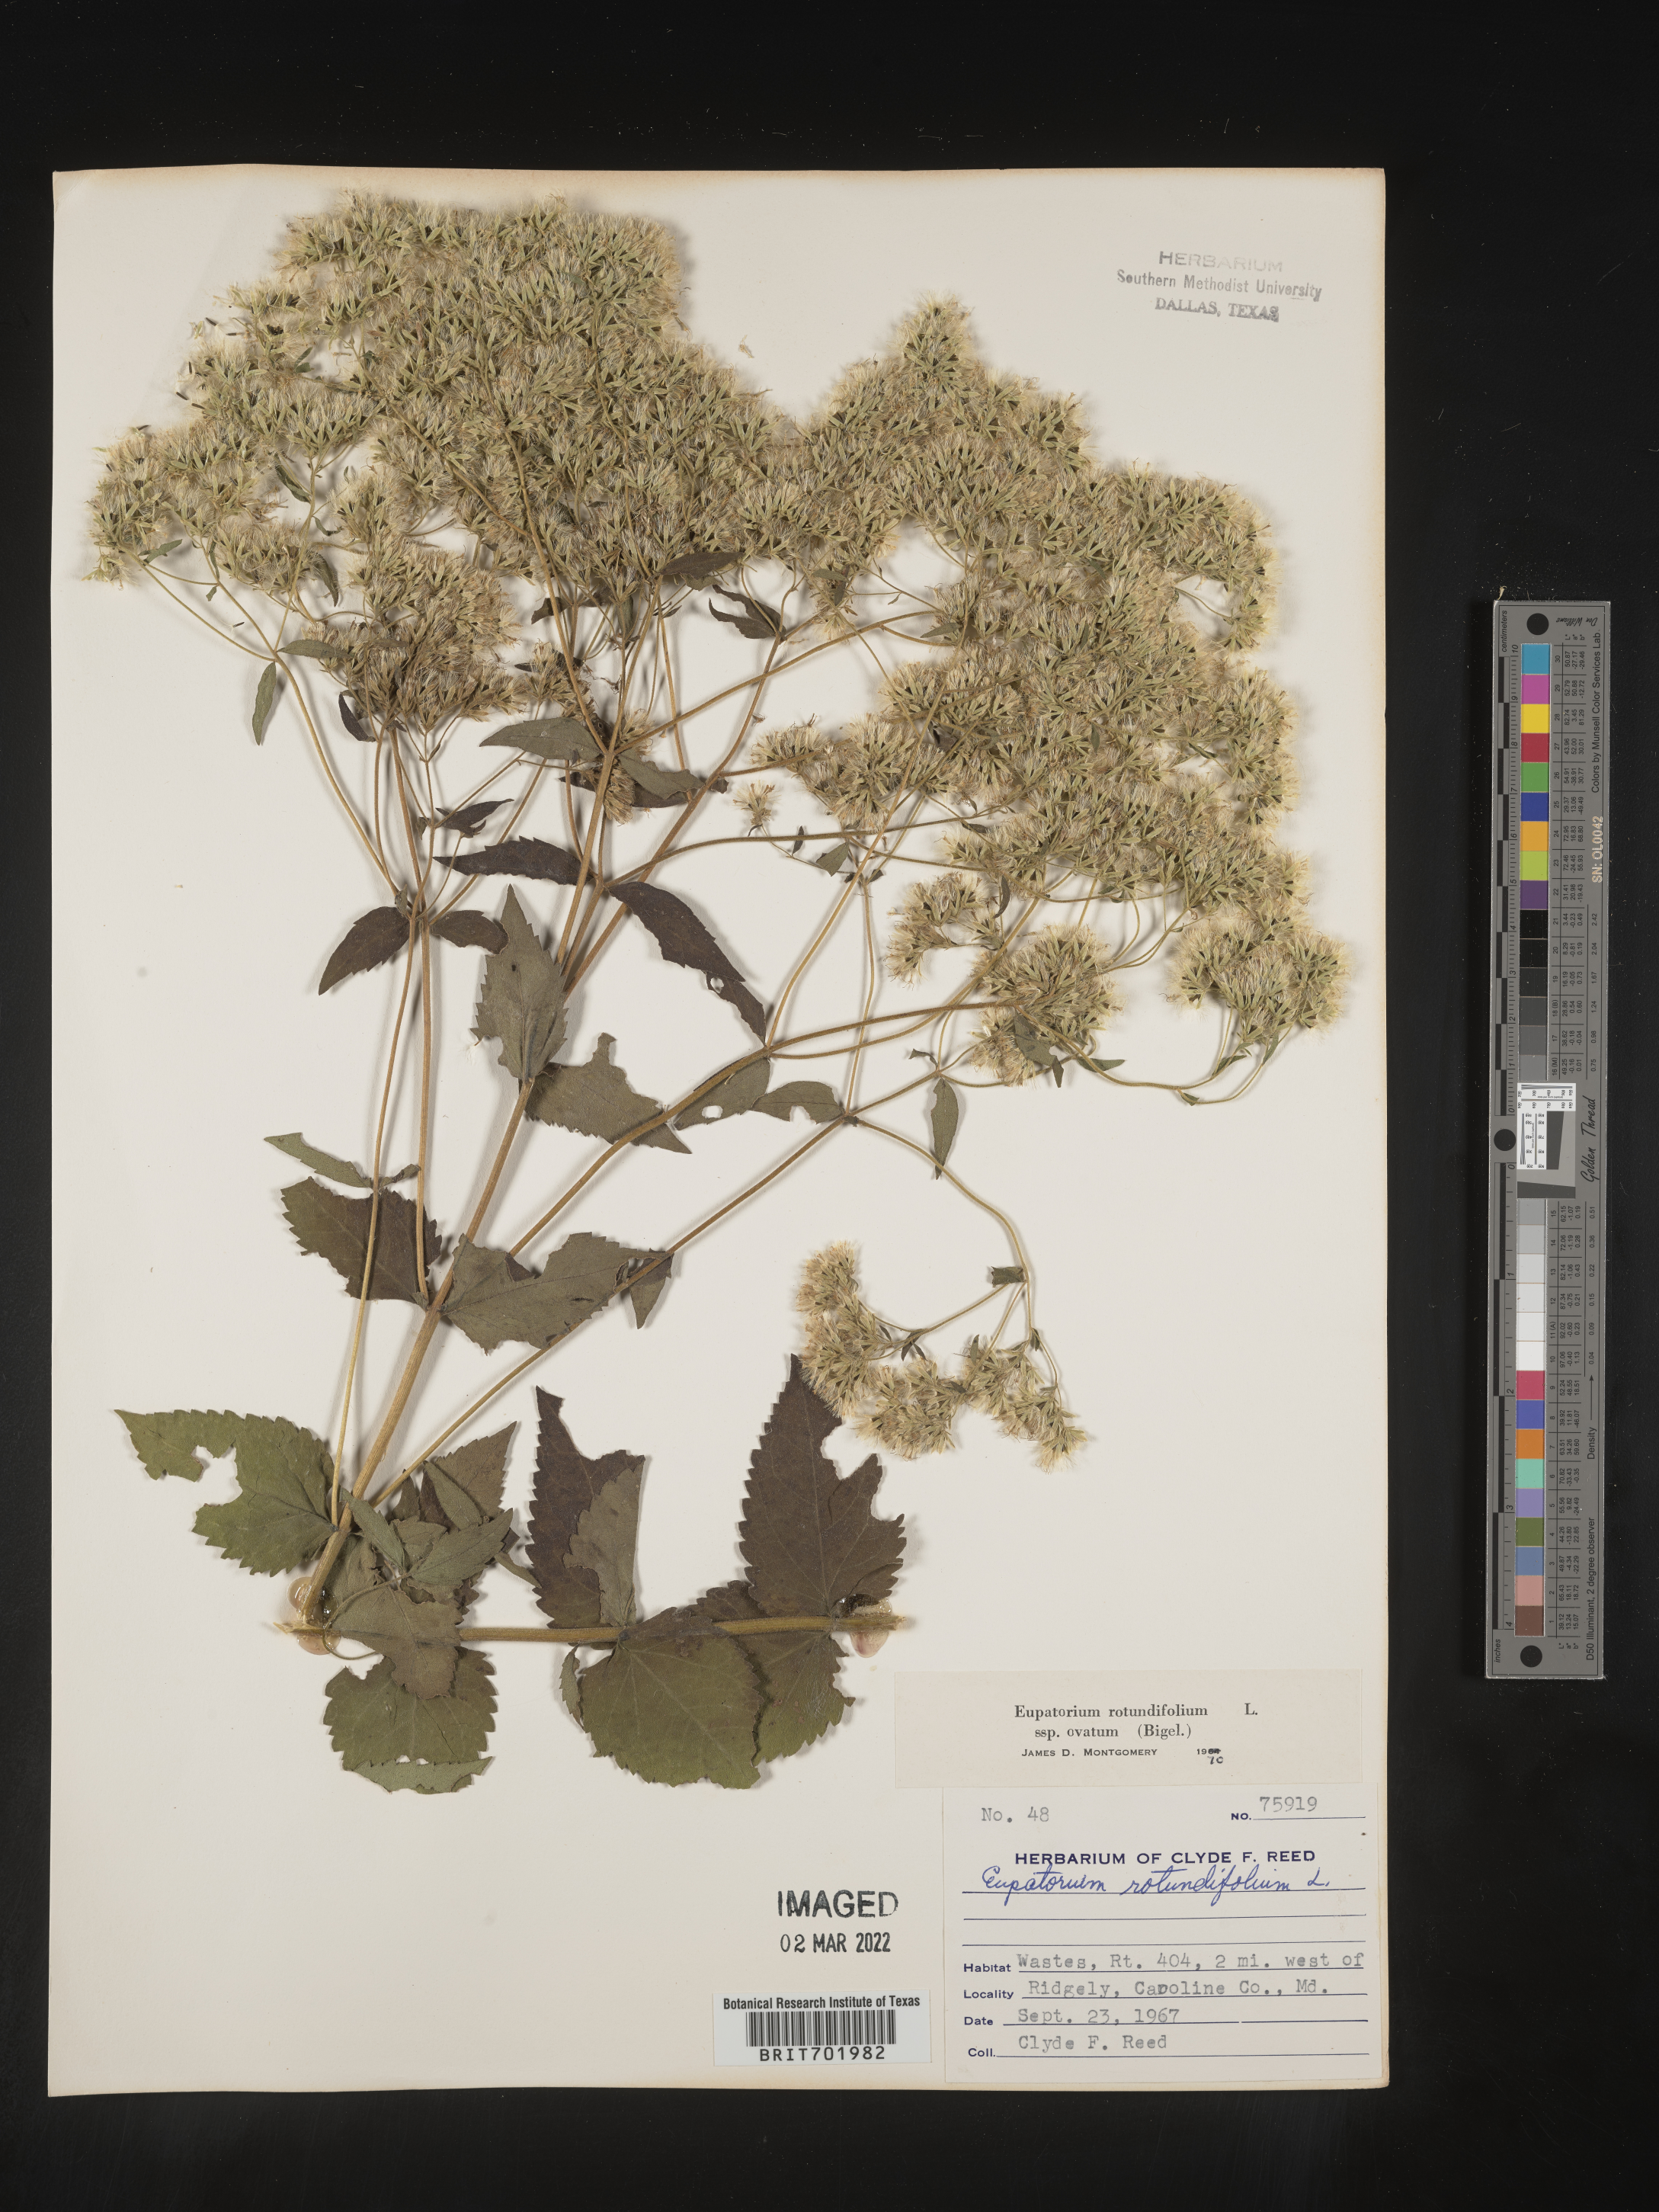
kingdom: Plantae
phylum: Tracheophyta
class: Magnoliopsida
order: Asterales
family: Asteraceae
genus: Eupatorium
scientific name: Eupatorium rotundifolium
